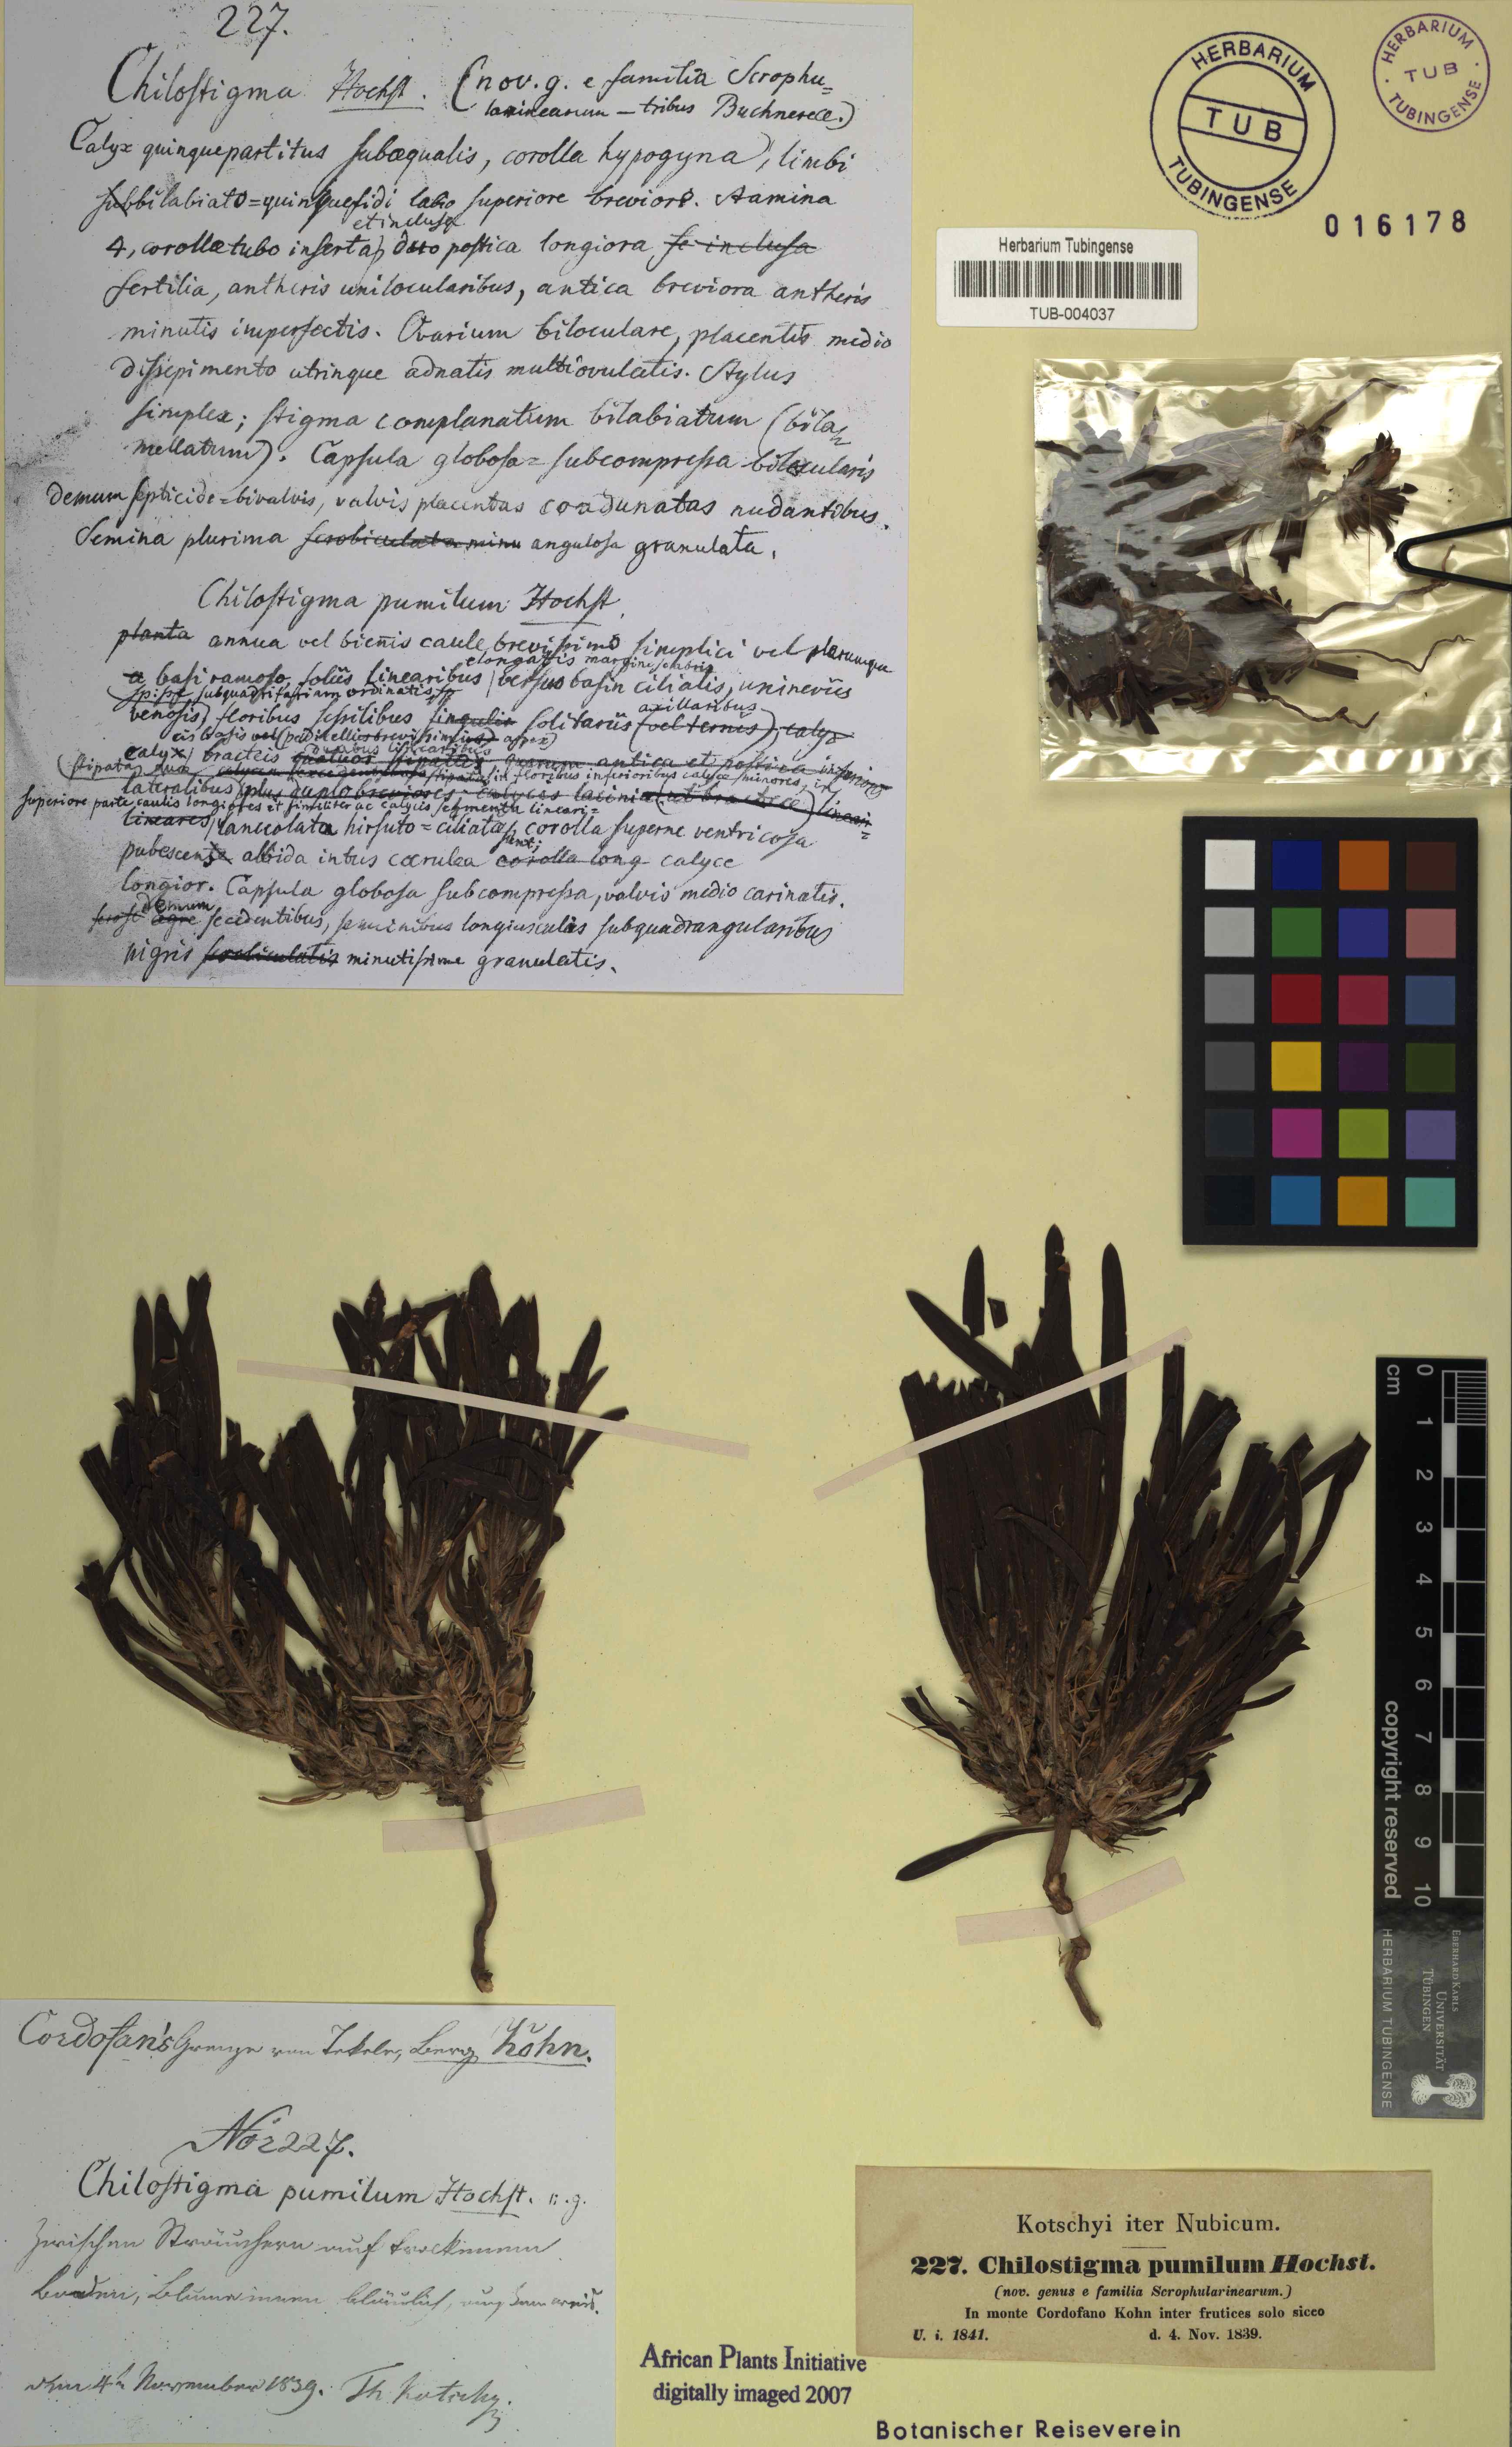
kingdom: Plantae
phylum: Tracheophyta
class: Magnoliopsida
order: Lamiales
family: Scrophulariaceae
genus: Aptosimum
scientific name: Aptosimum pumilum
